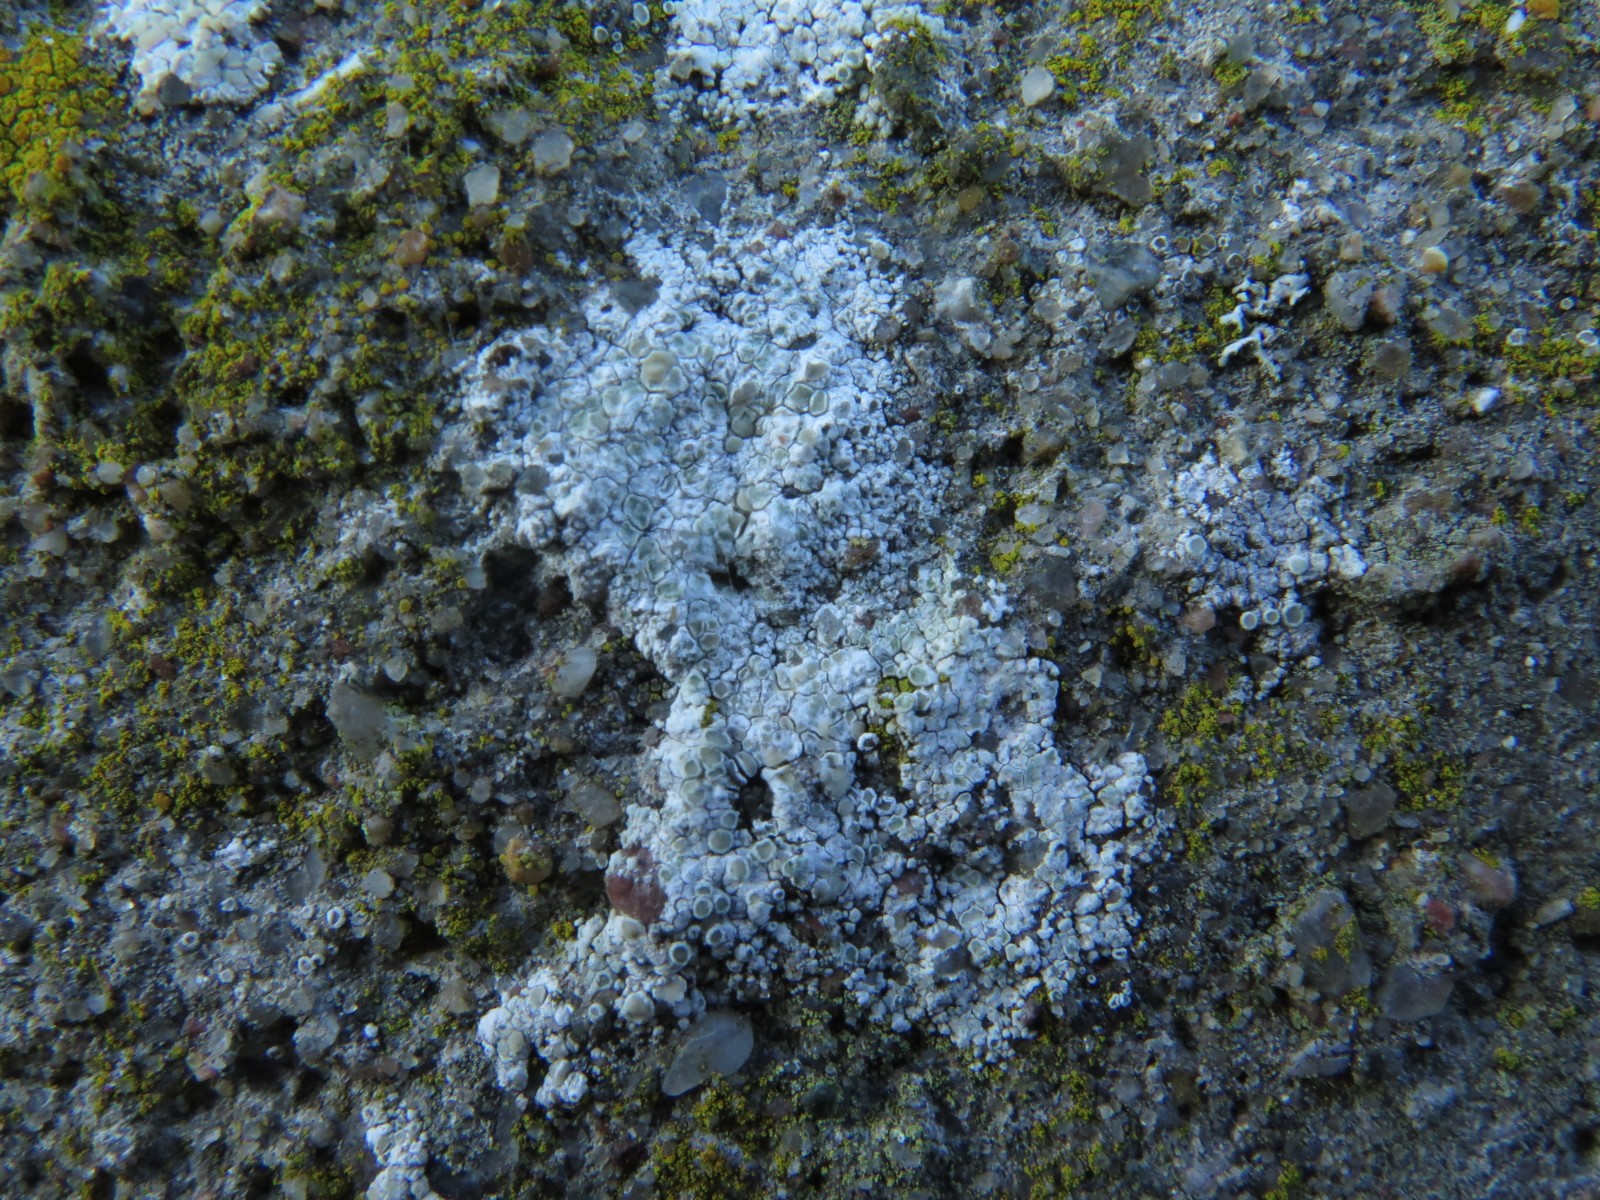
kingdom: Fungi
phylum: Ascomycota
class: Lecanoromycetes
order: Lecanorales
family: Lecanoraceae
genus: Polyozosia
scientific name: Polyozosia albescens
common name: cement-kantskivelav
